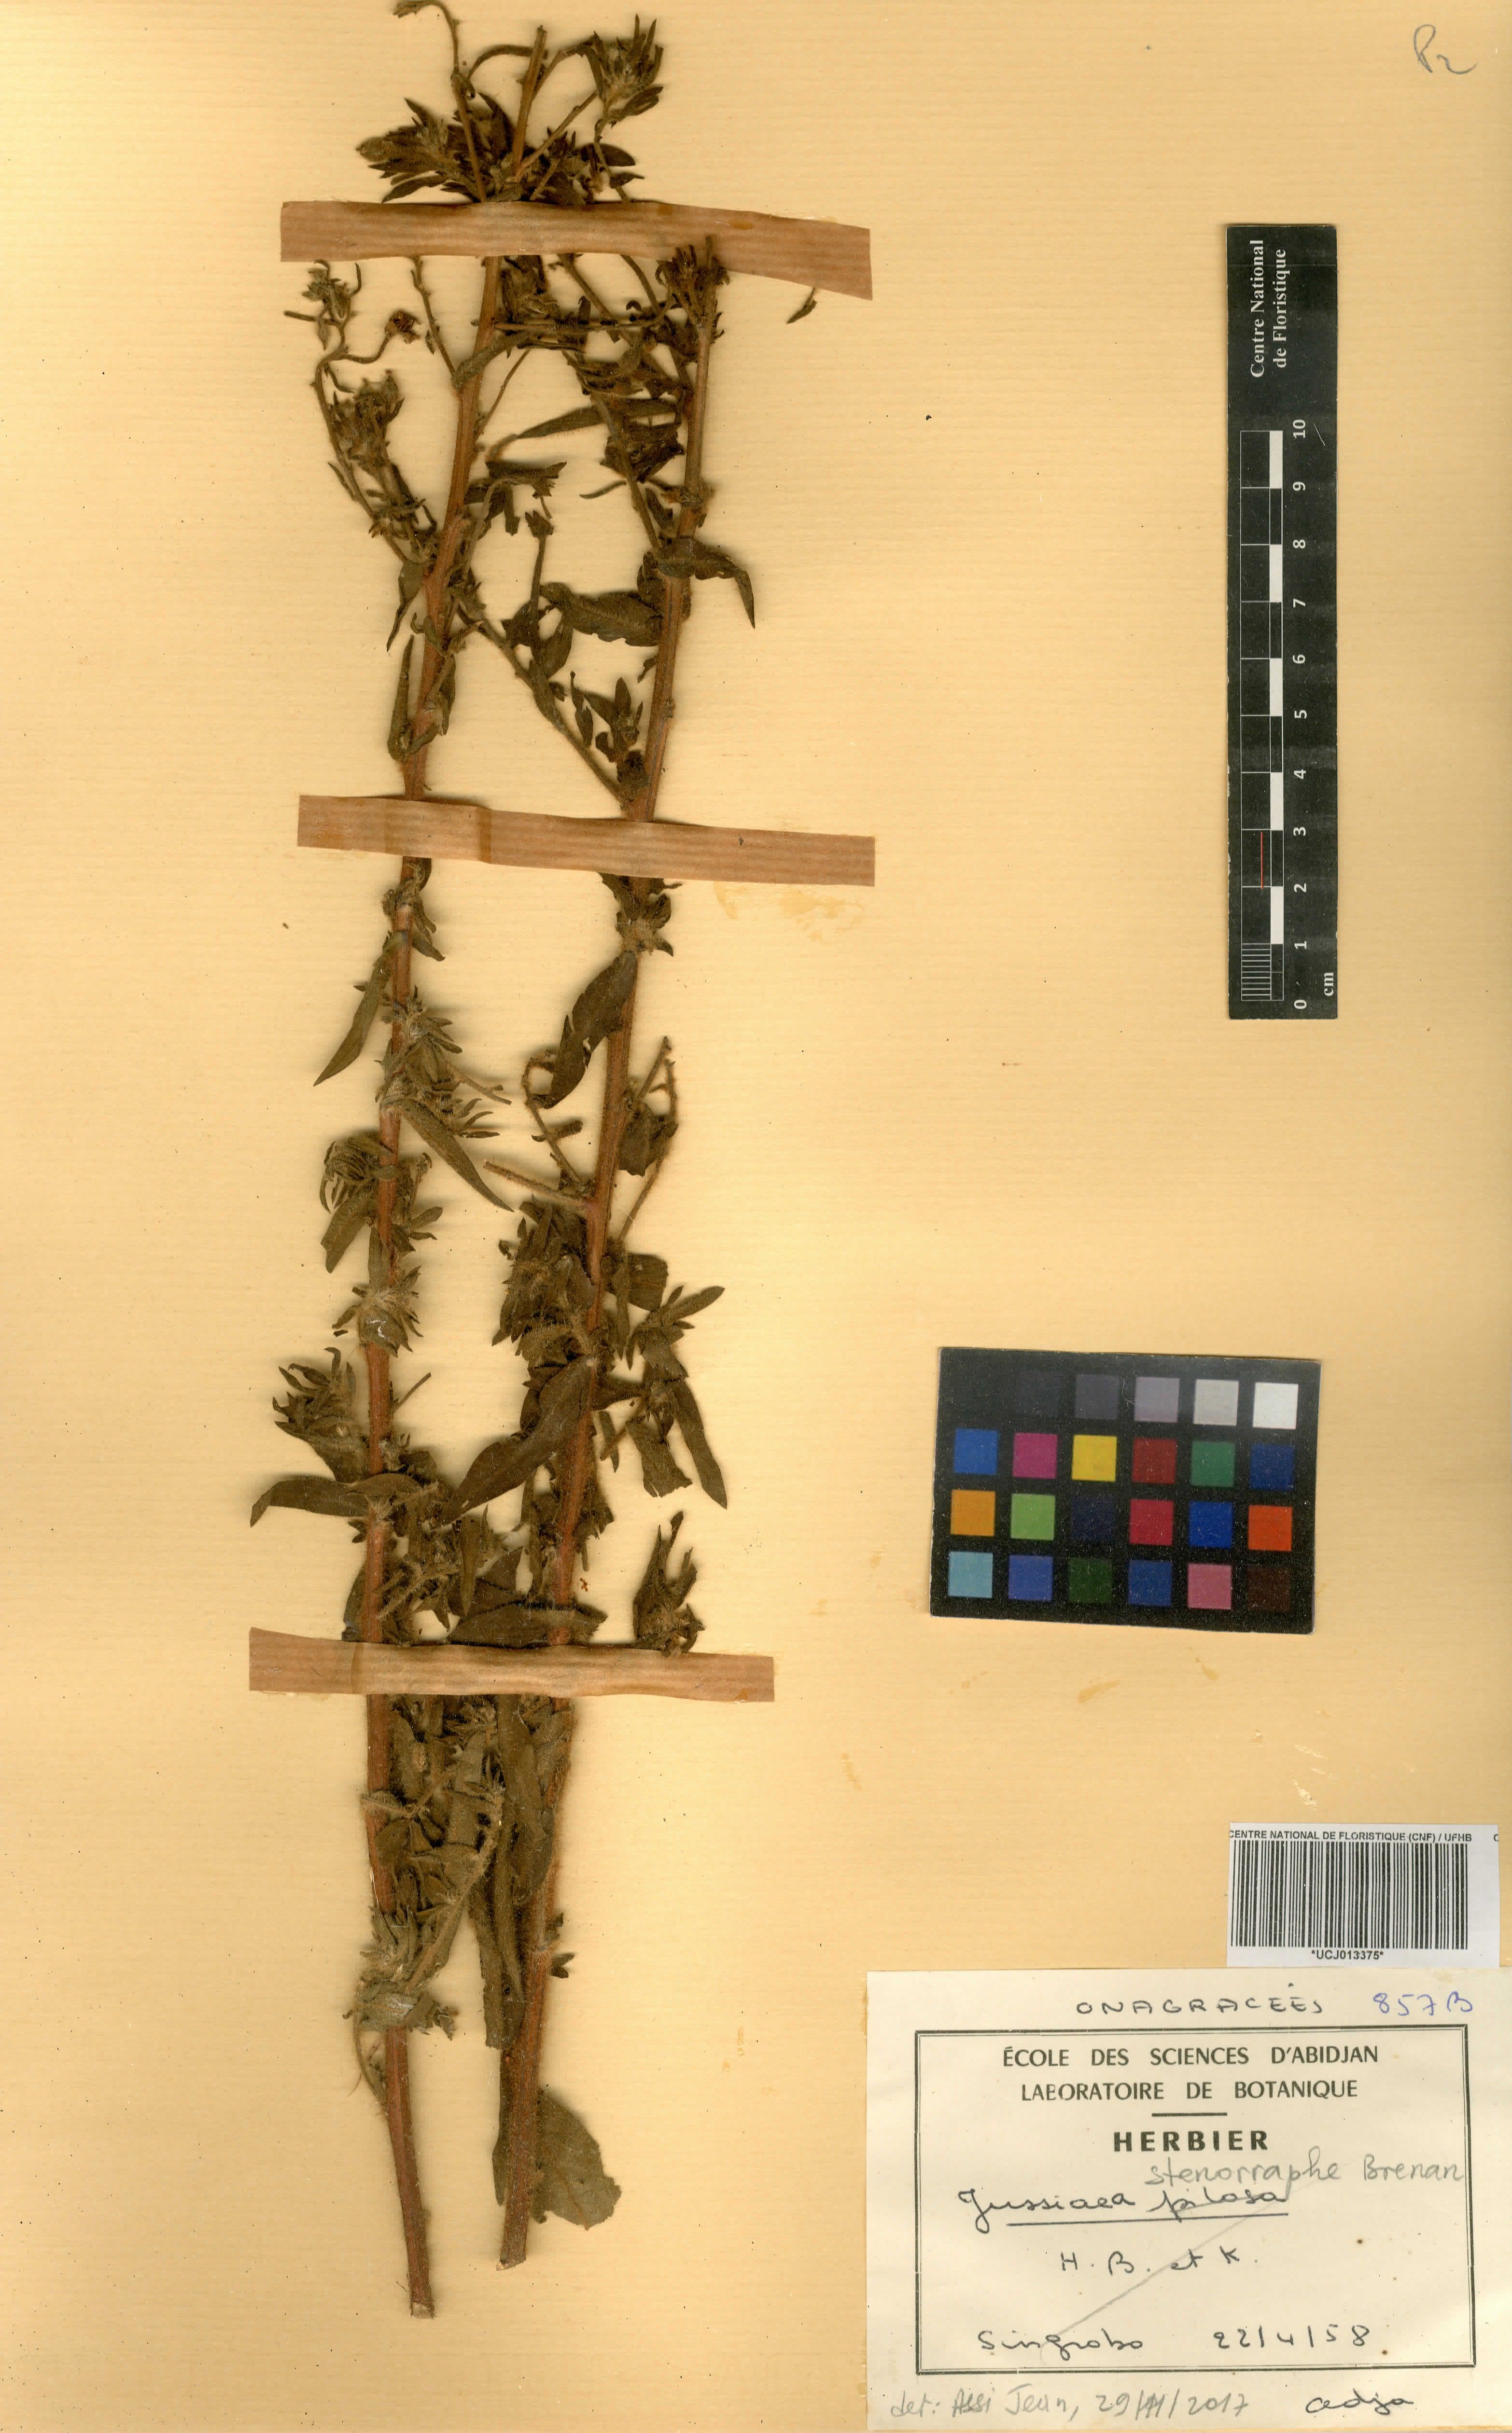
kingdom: Plantae
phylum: Tracheophyta
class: Magnoliopsida
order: Myrtales
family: Onagraceae
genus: Ludwigia
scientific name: Ludwigia stenorraphe
